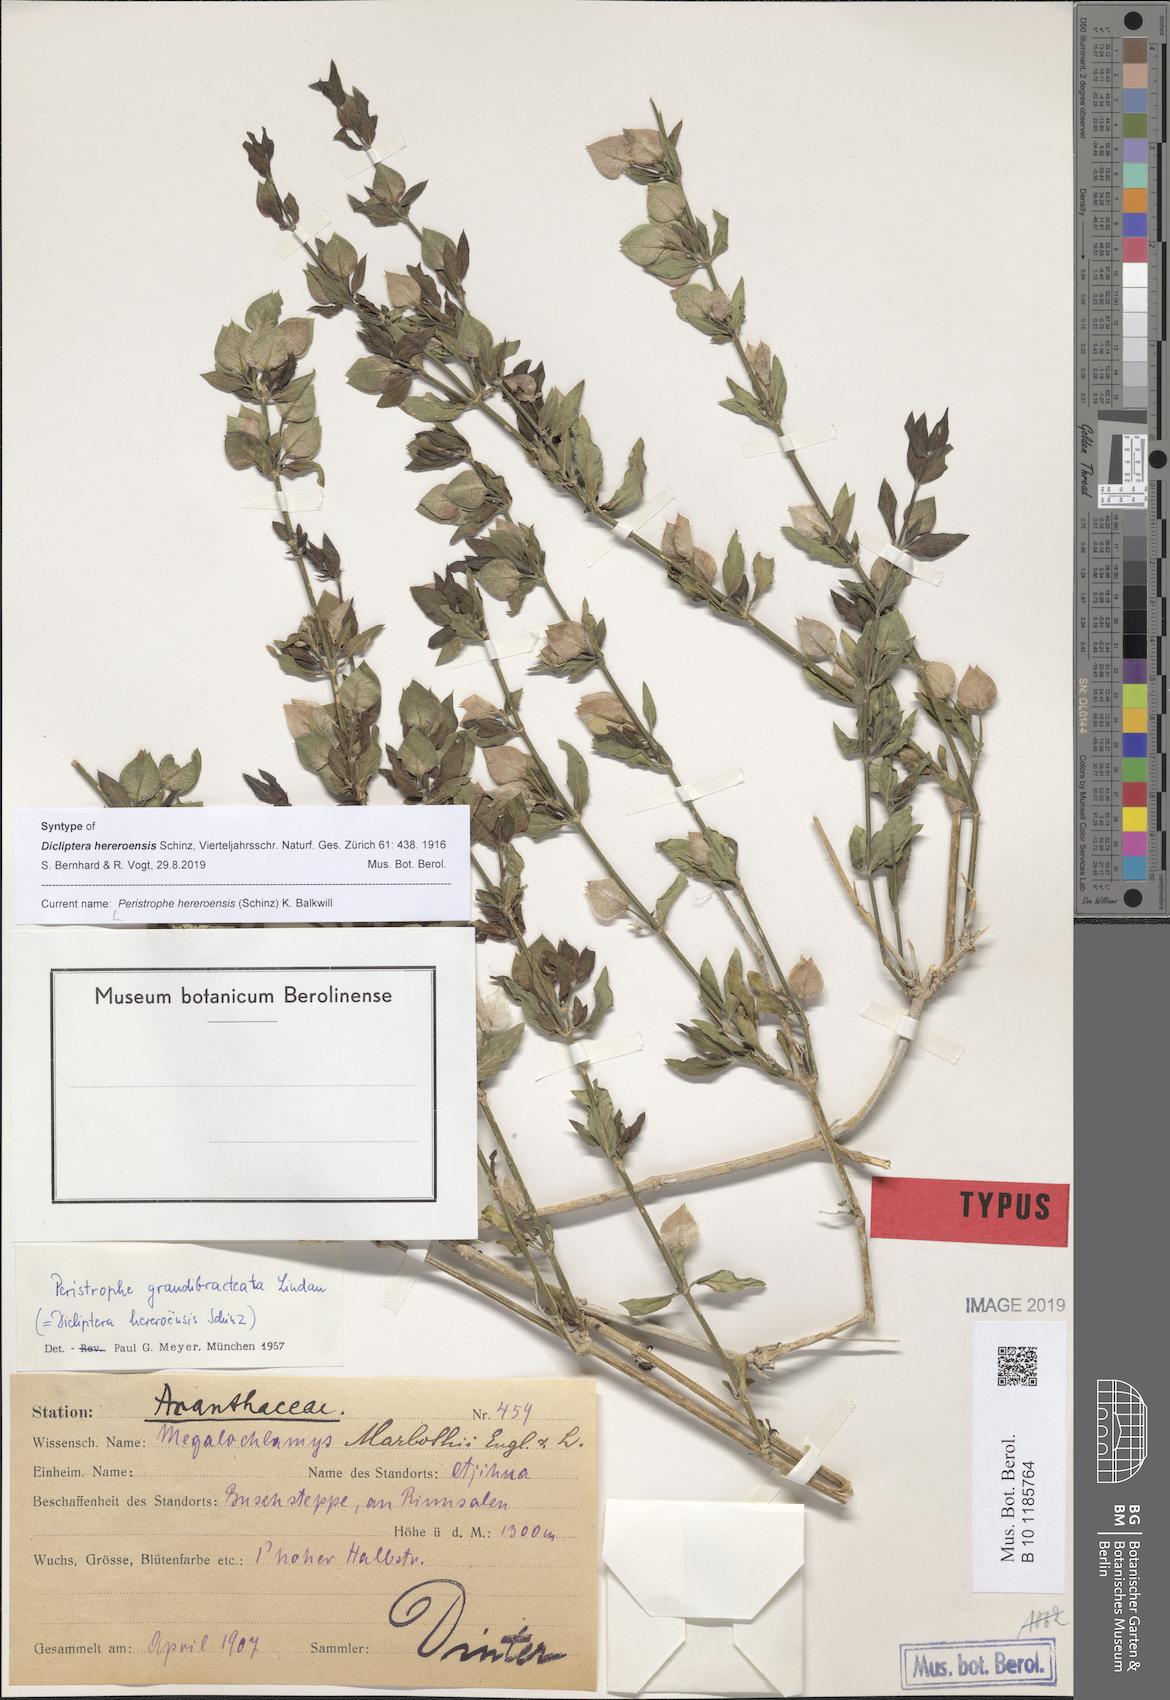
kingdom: Plantae
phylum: Tracheophyta
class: Magnoliopsida
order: Lamiales
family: Acanthaceae
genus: Dicliptera
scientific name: Dicliptera hereroensis
